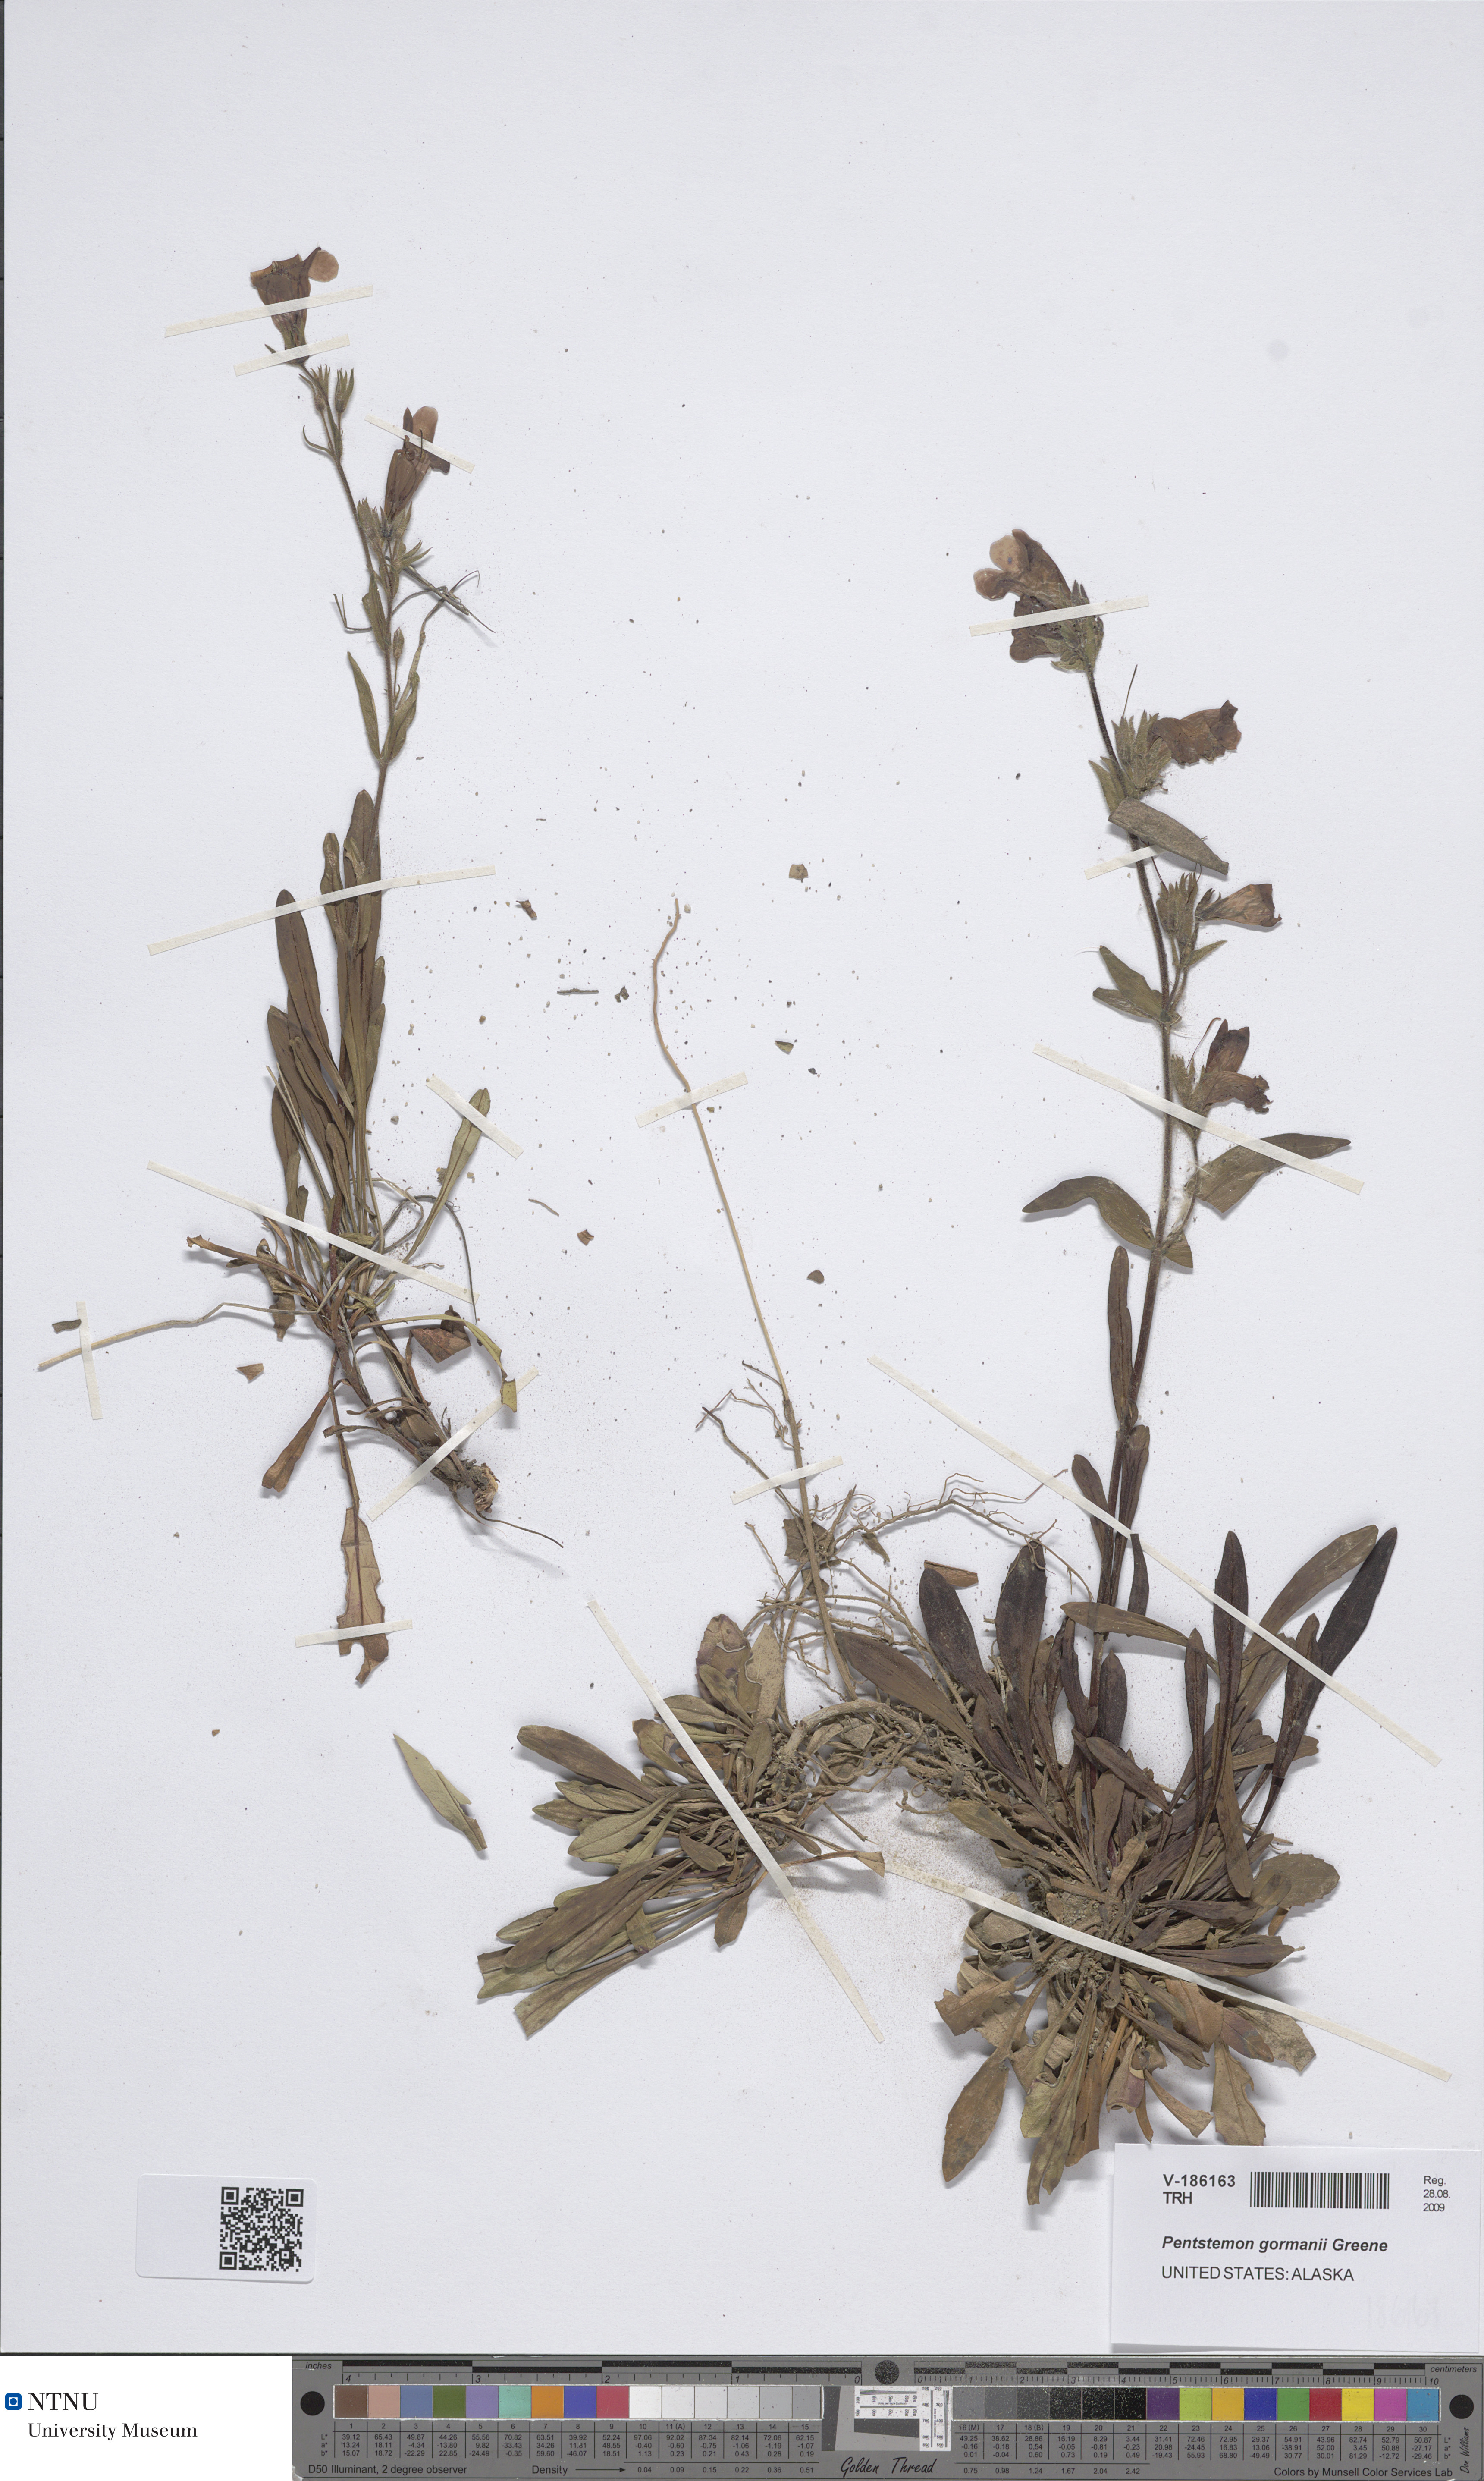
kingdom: Plantae
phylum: Tracheophyta
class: Magnoliopsida
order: Lamiales
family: Plantaginaceae
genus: Penstemon
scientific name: Penstemon gormanii
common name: Gorman's beardtongue
